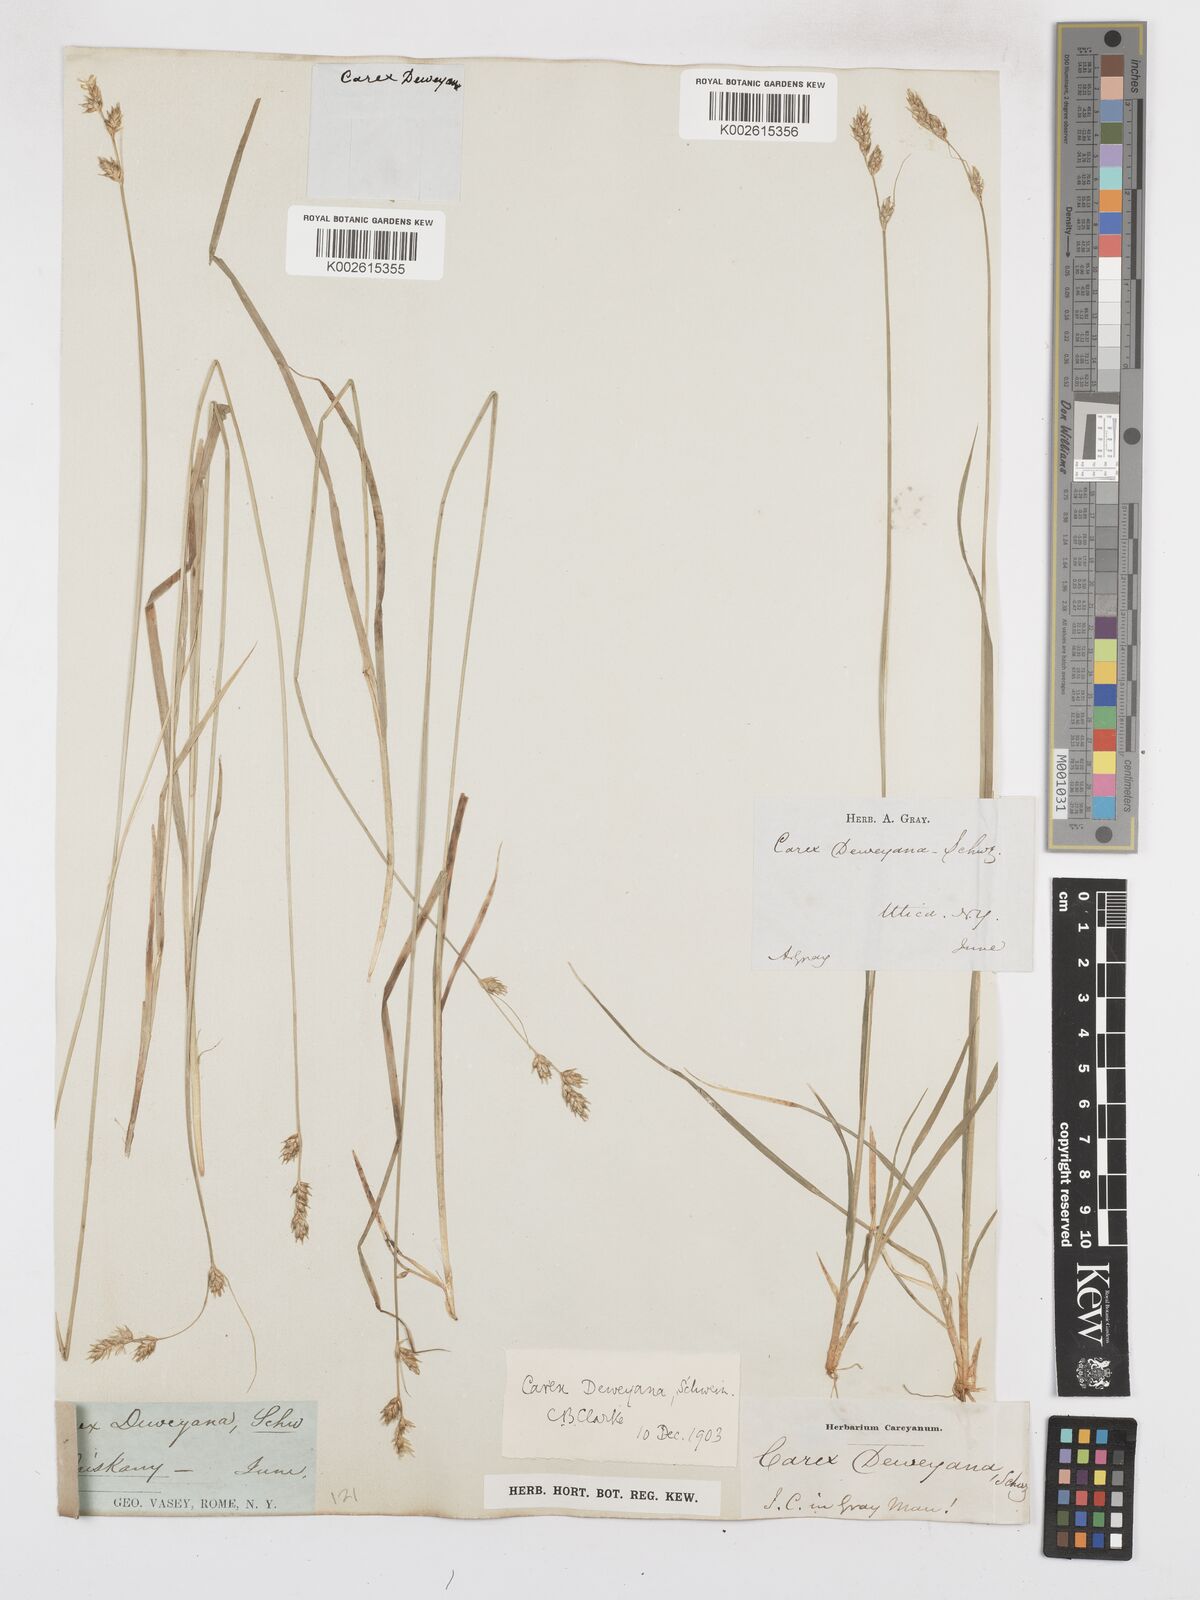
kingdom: Plantae
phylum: Tracheophyta
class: Liliopsida
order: Poales
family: Cyperaceae
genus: Carex
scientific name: Carex deweyana
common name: Dewey's sedge
